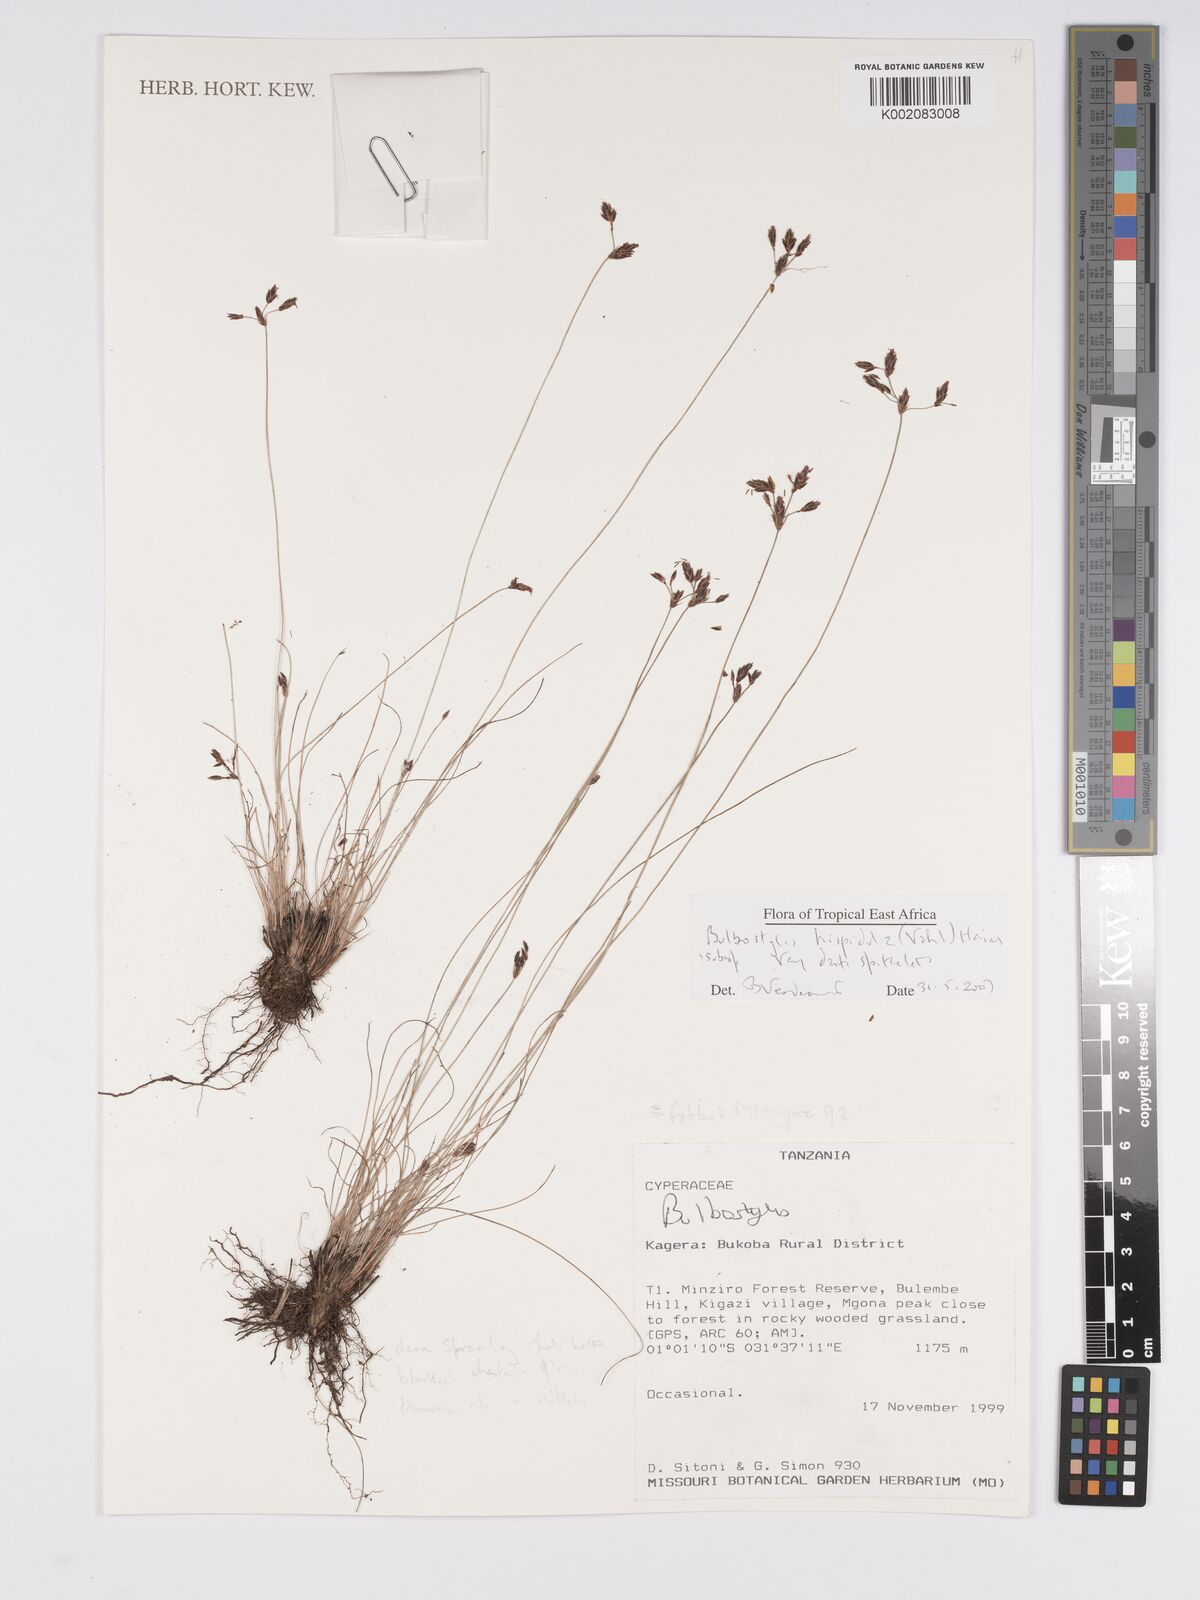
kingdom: Plantae
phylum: Tracheophyta
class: Liliopsida
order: Poales
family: Cyperaceae
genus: Bulbostylis
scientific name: Bulbostylis hispidula
